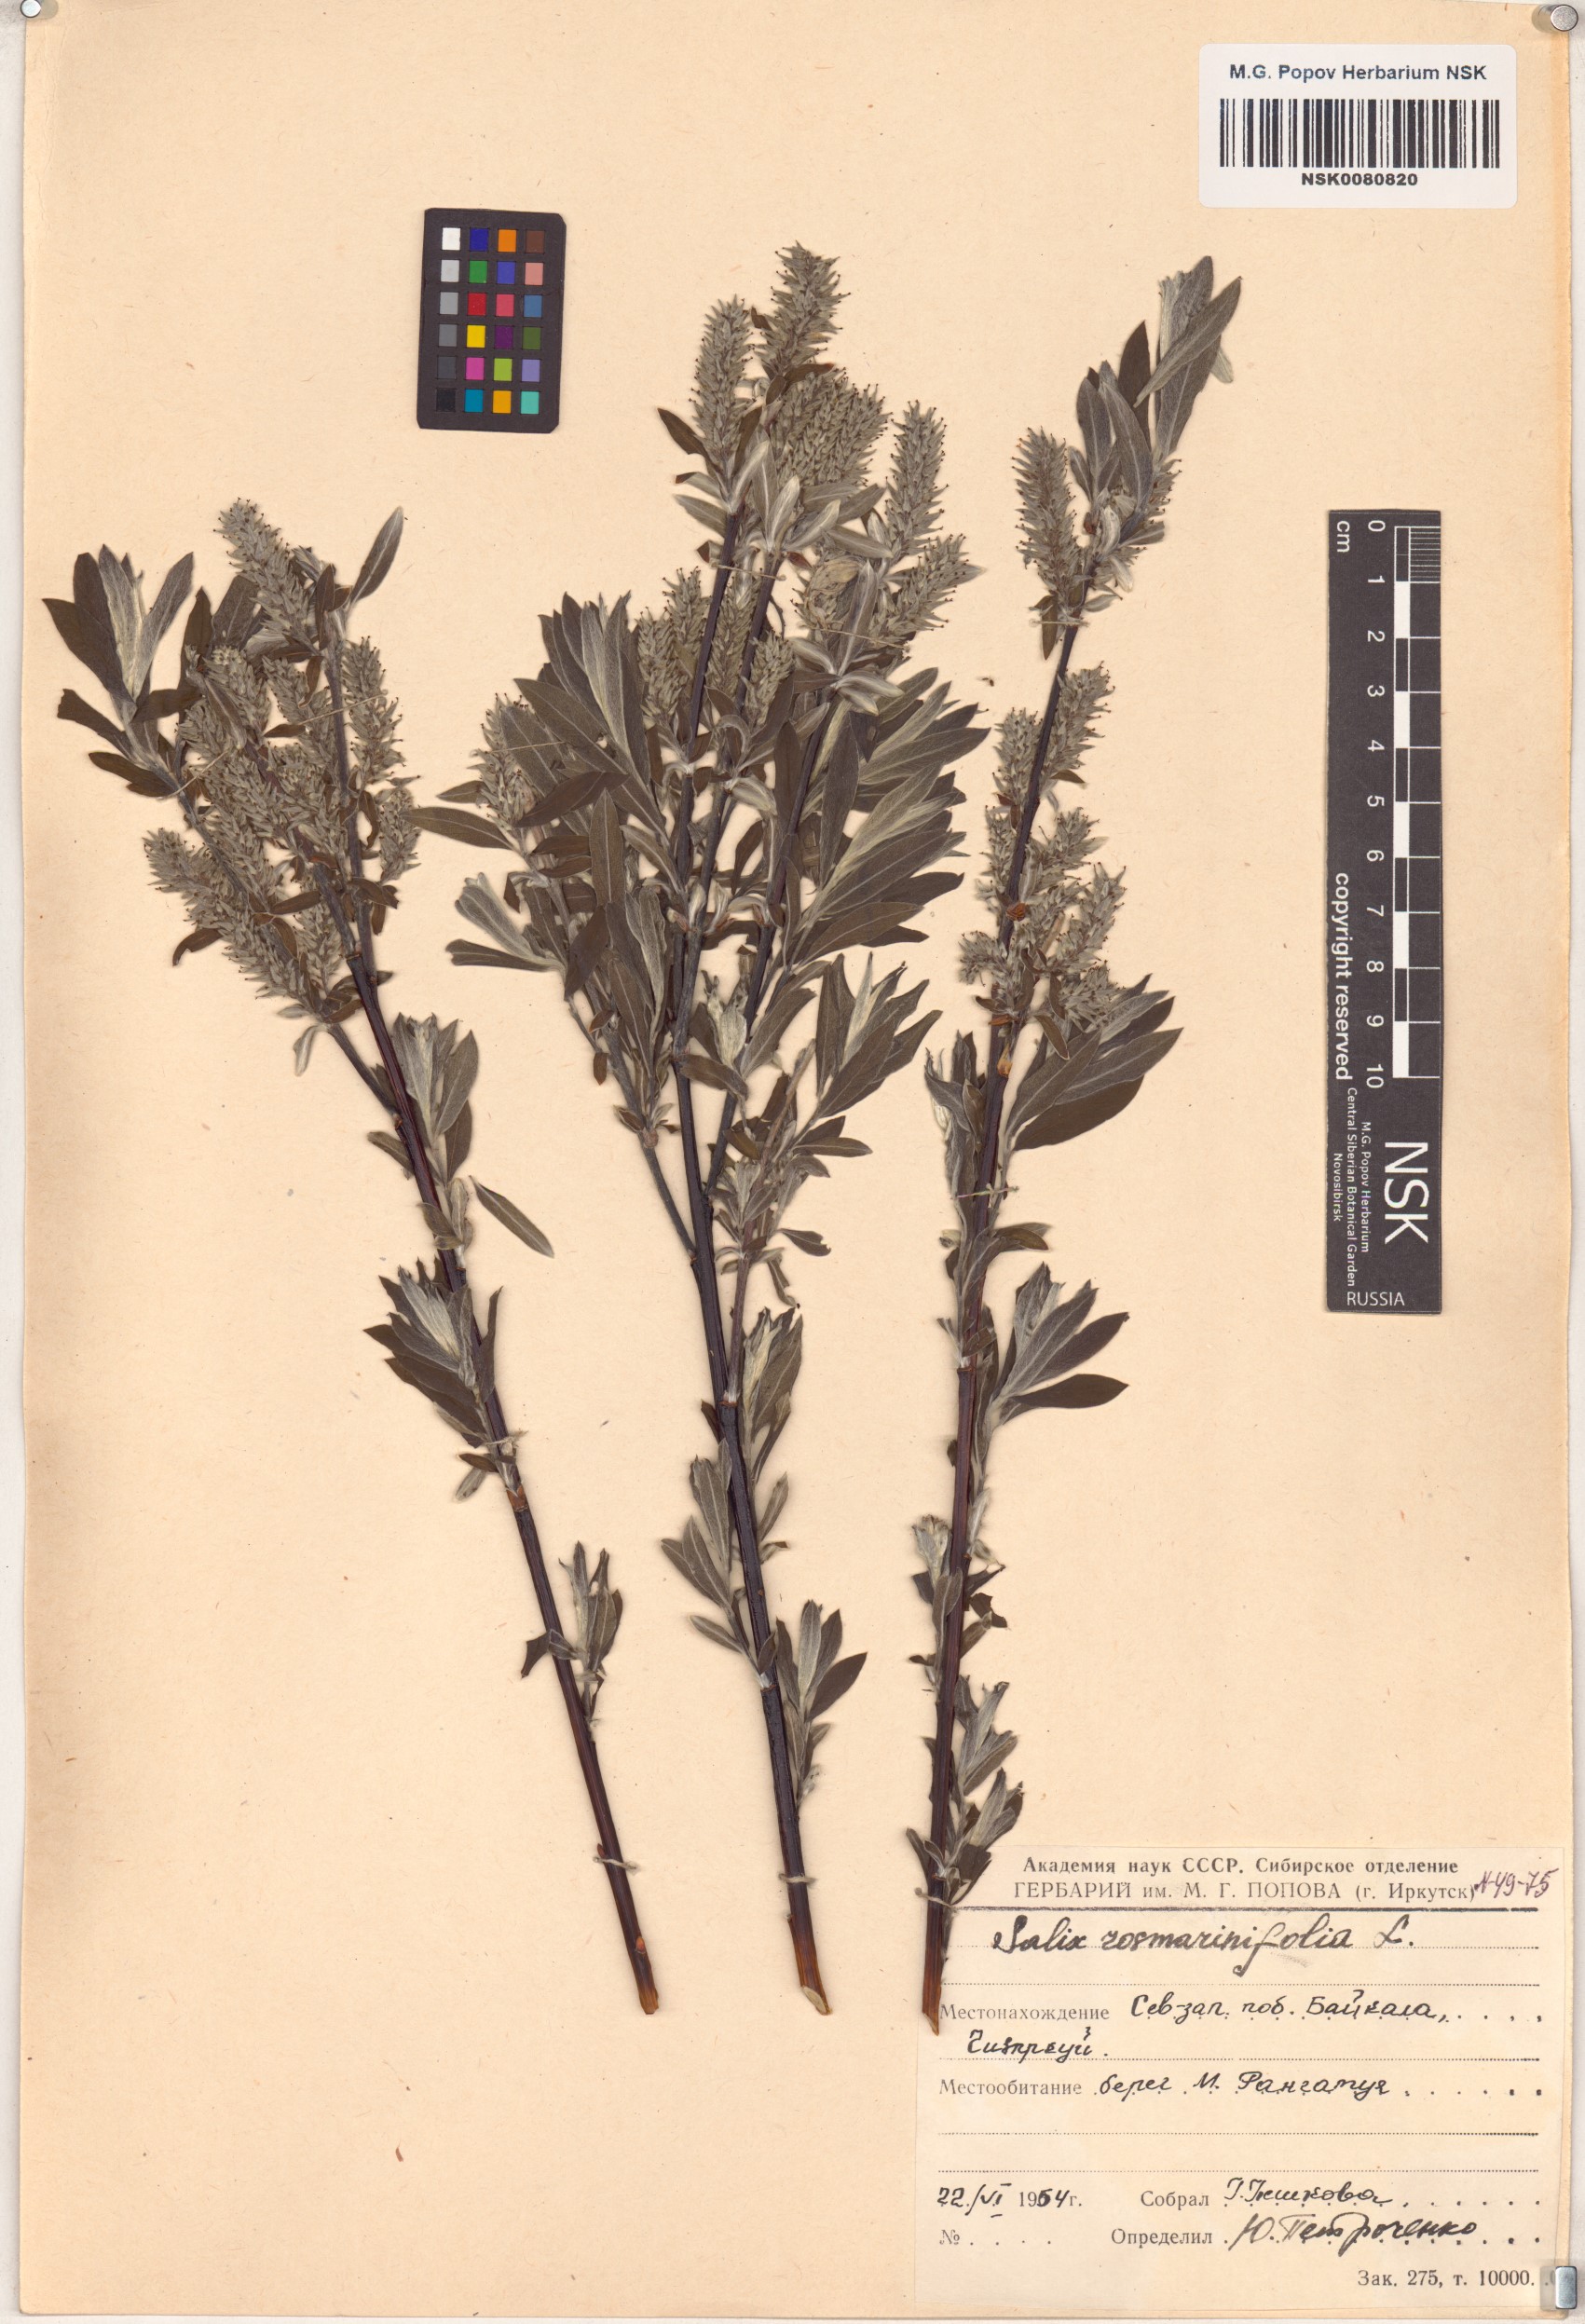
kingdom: Plantae
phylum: Tracheophyta
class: Magnoliopsida
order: Malpighiales
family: Salicaceae
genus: Salix
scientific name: Salix rosmarinifolia
